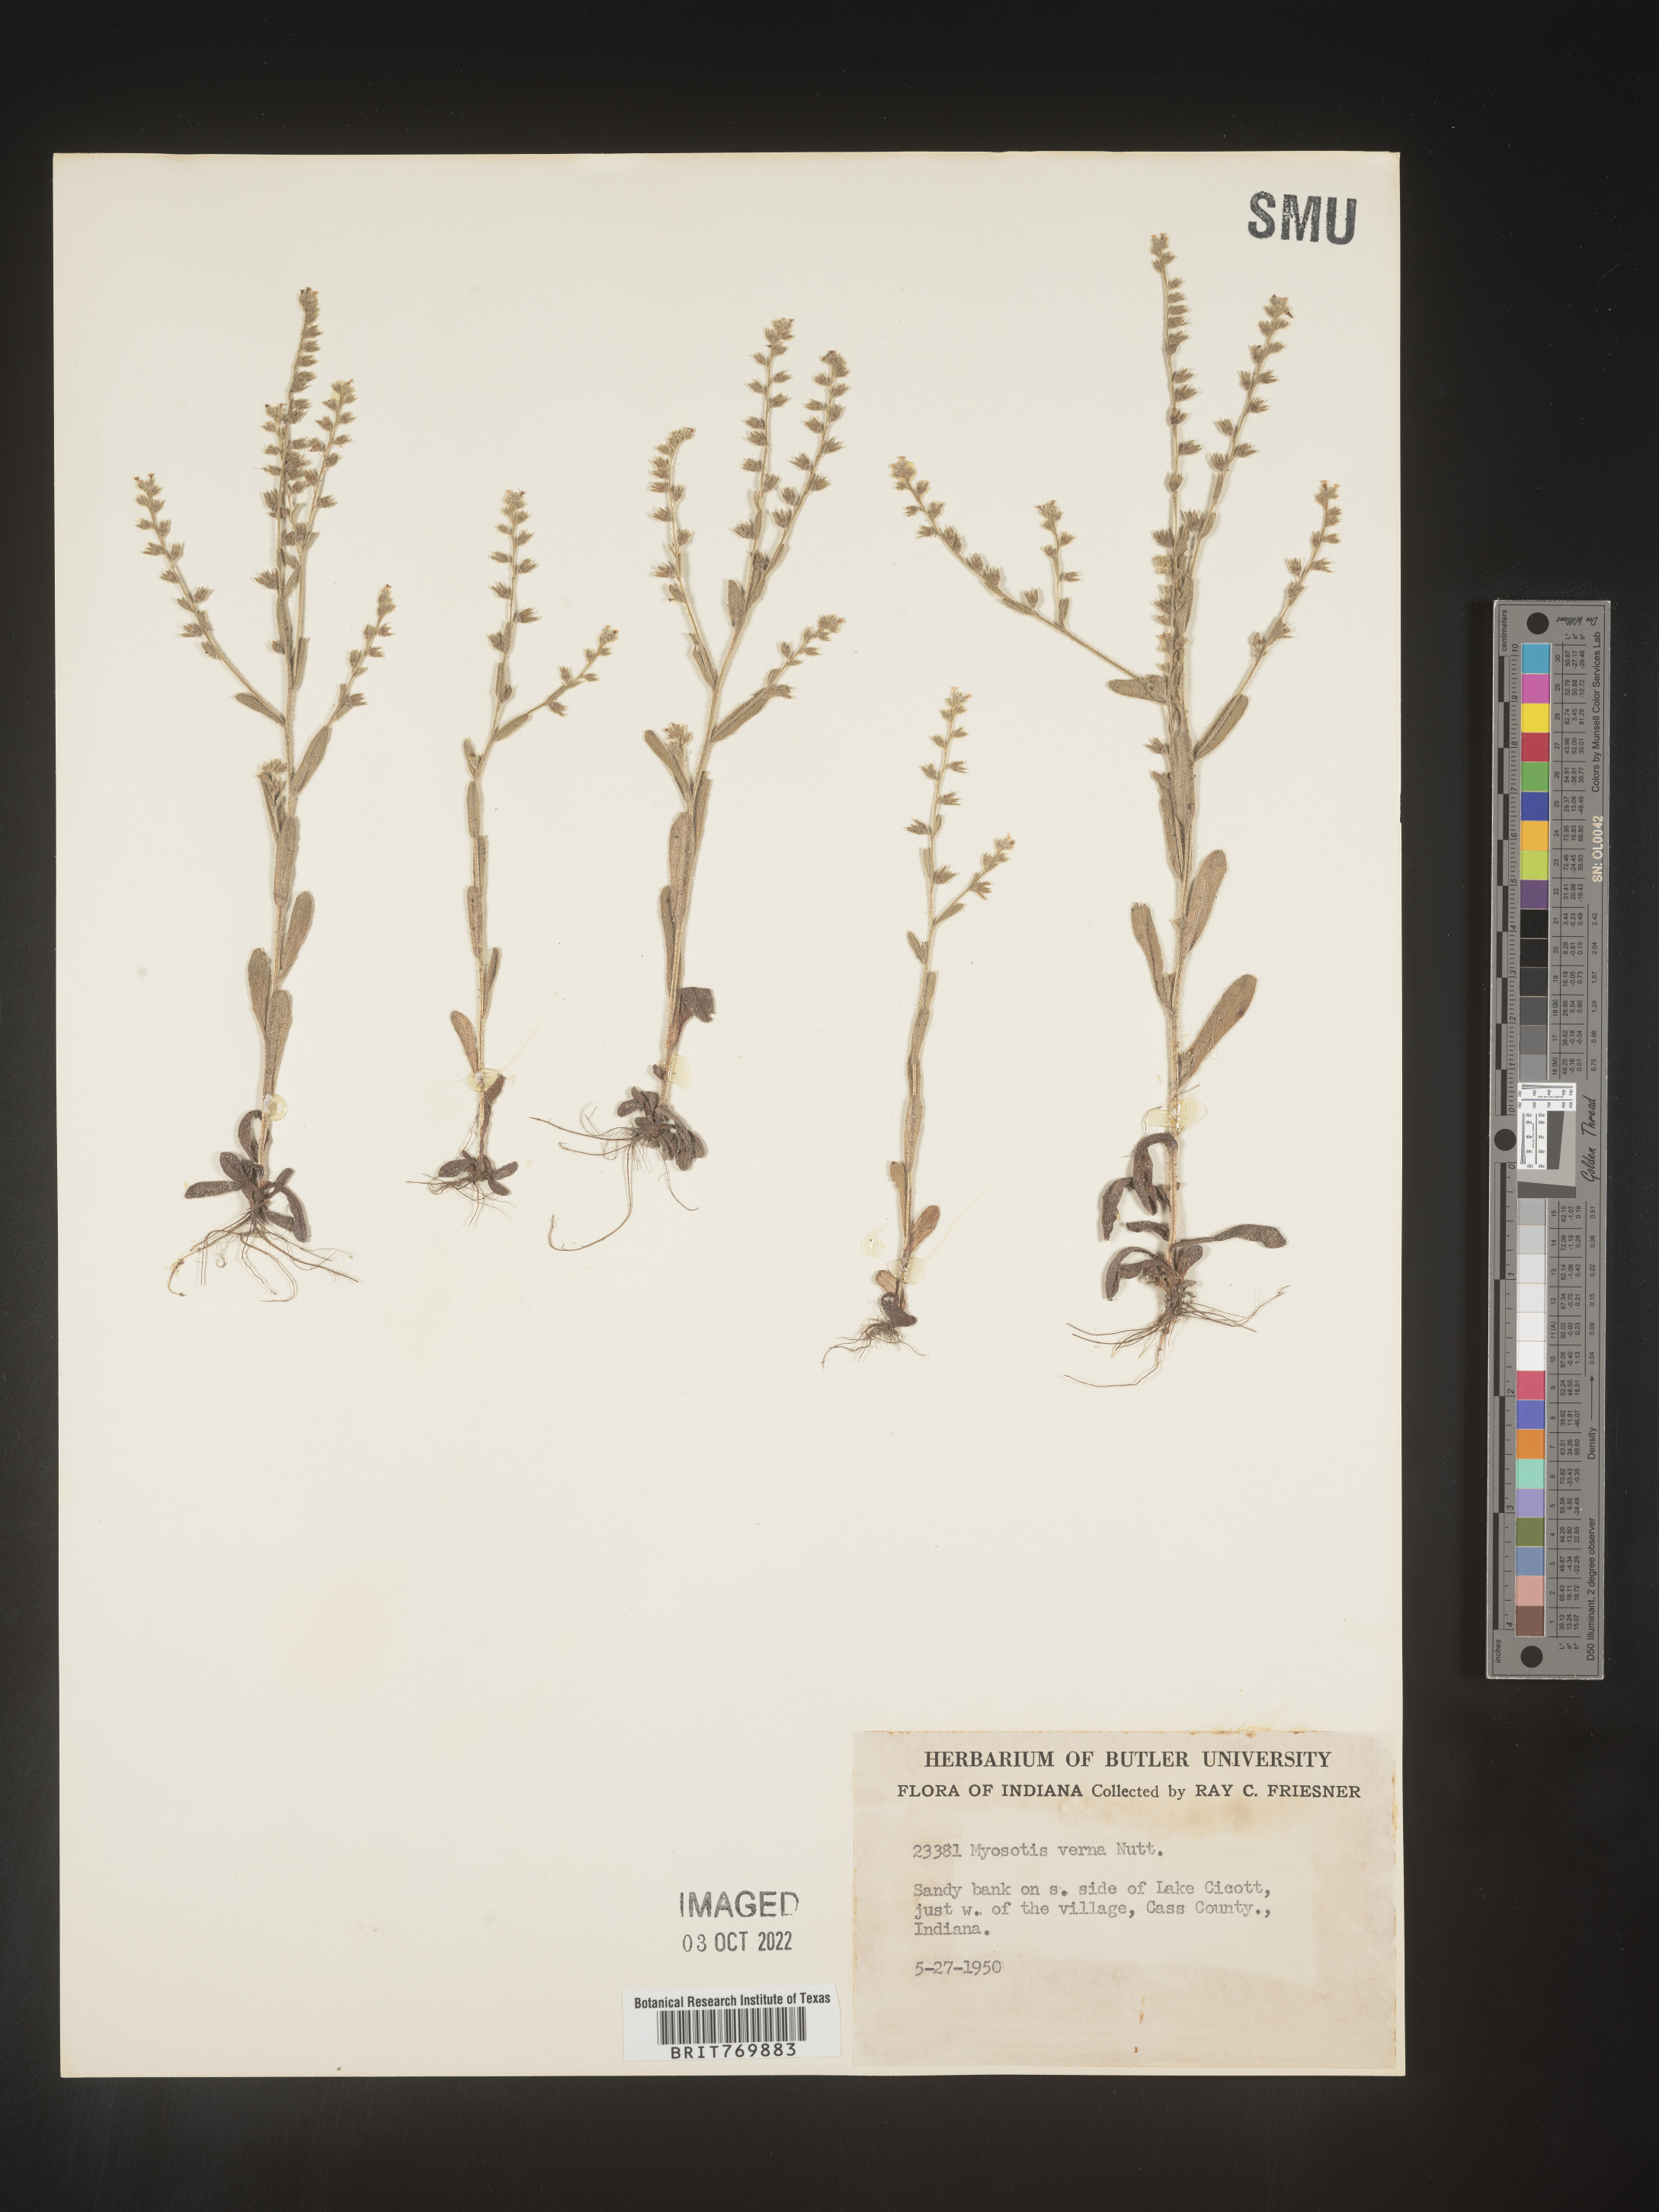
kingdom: Plantae
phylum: Tracheophyta
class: Magnoliopsida
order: Boraginales
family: Boraginaceae
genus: Myosotis
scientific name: Myosotis verna
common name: Early forget-me-not
